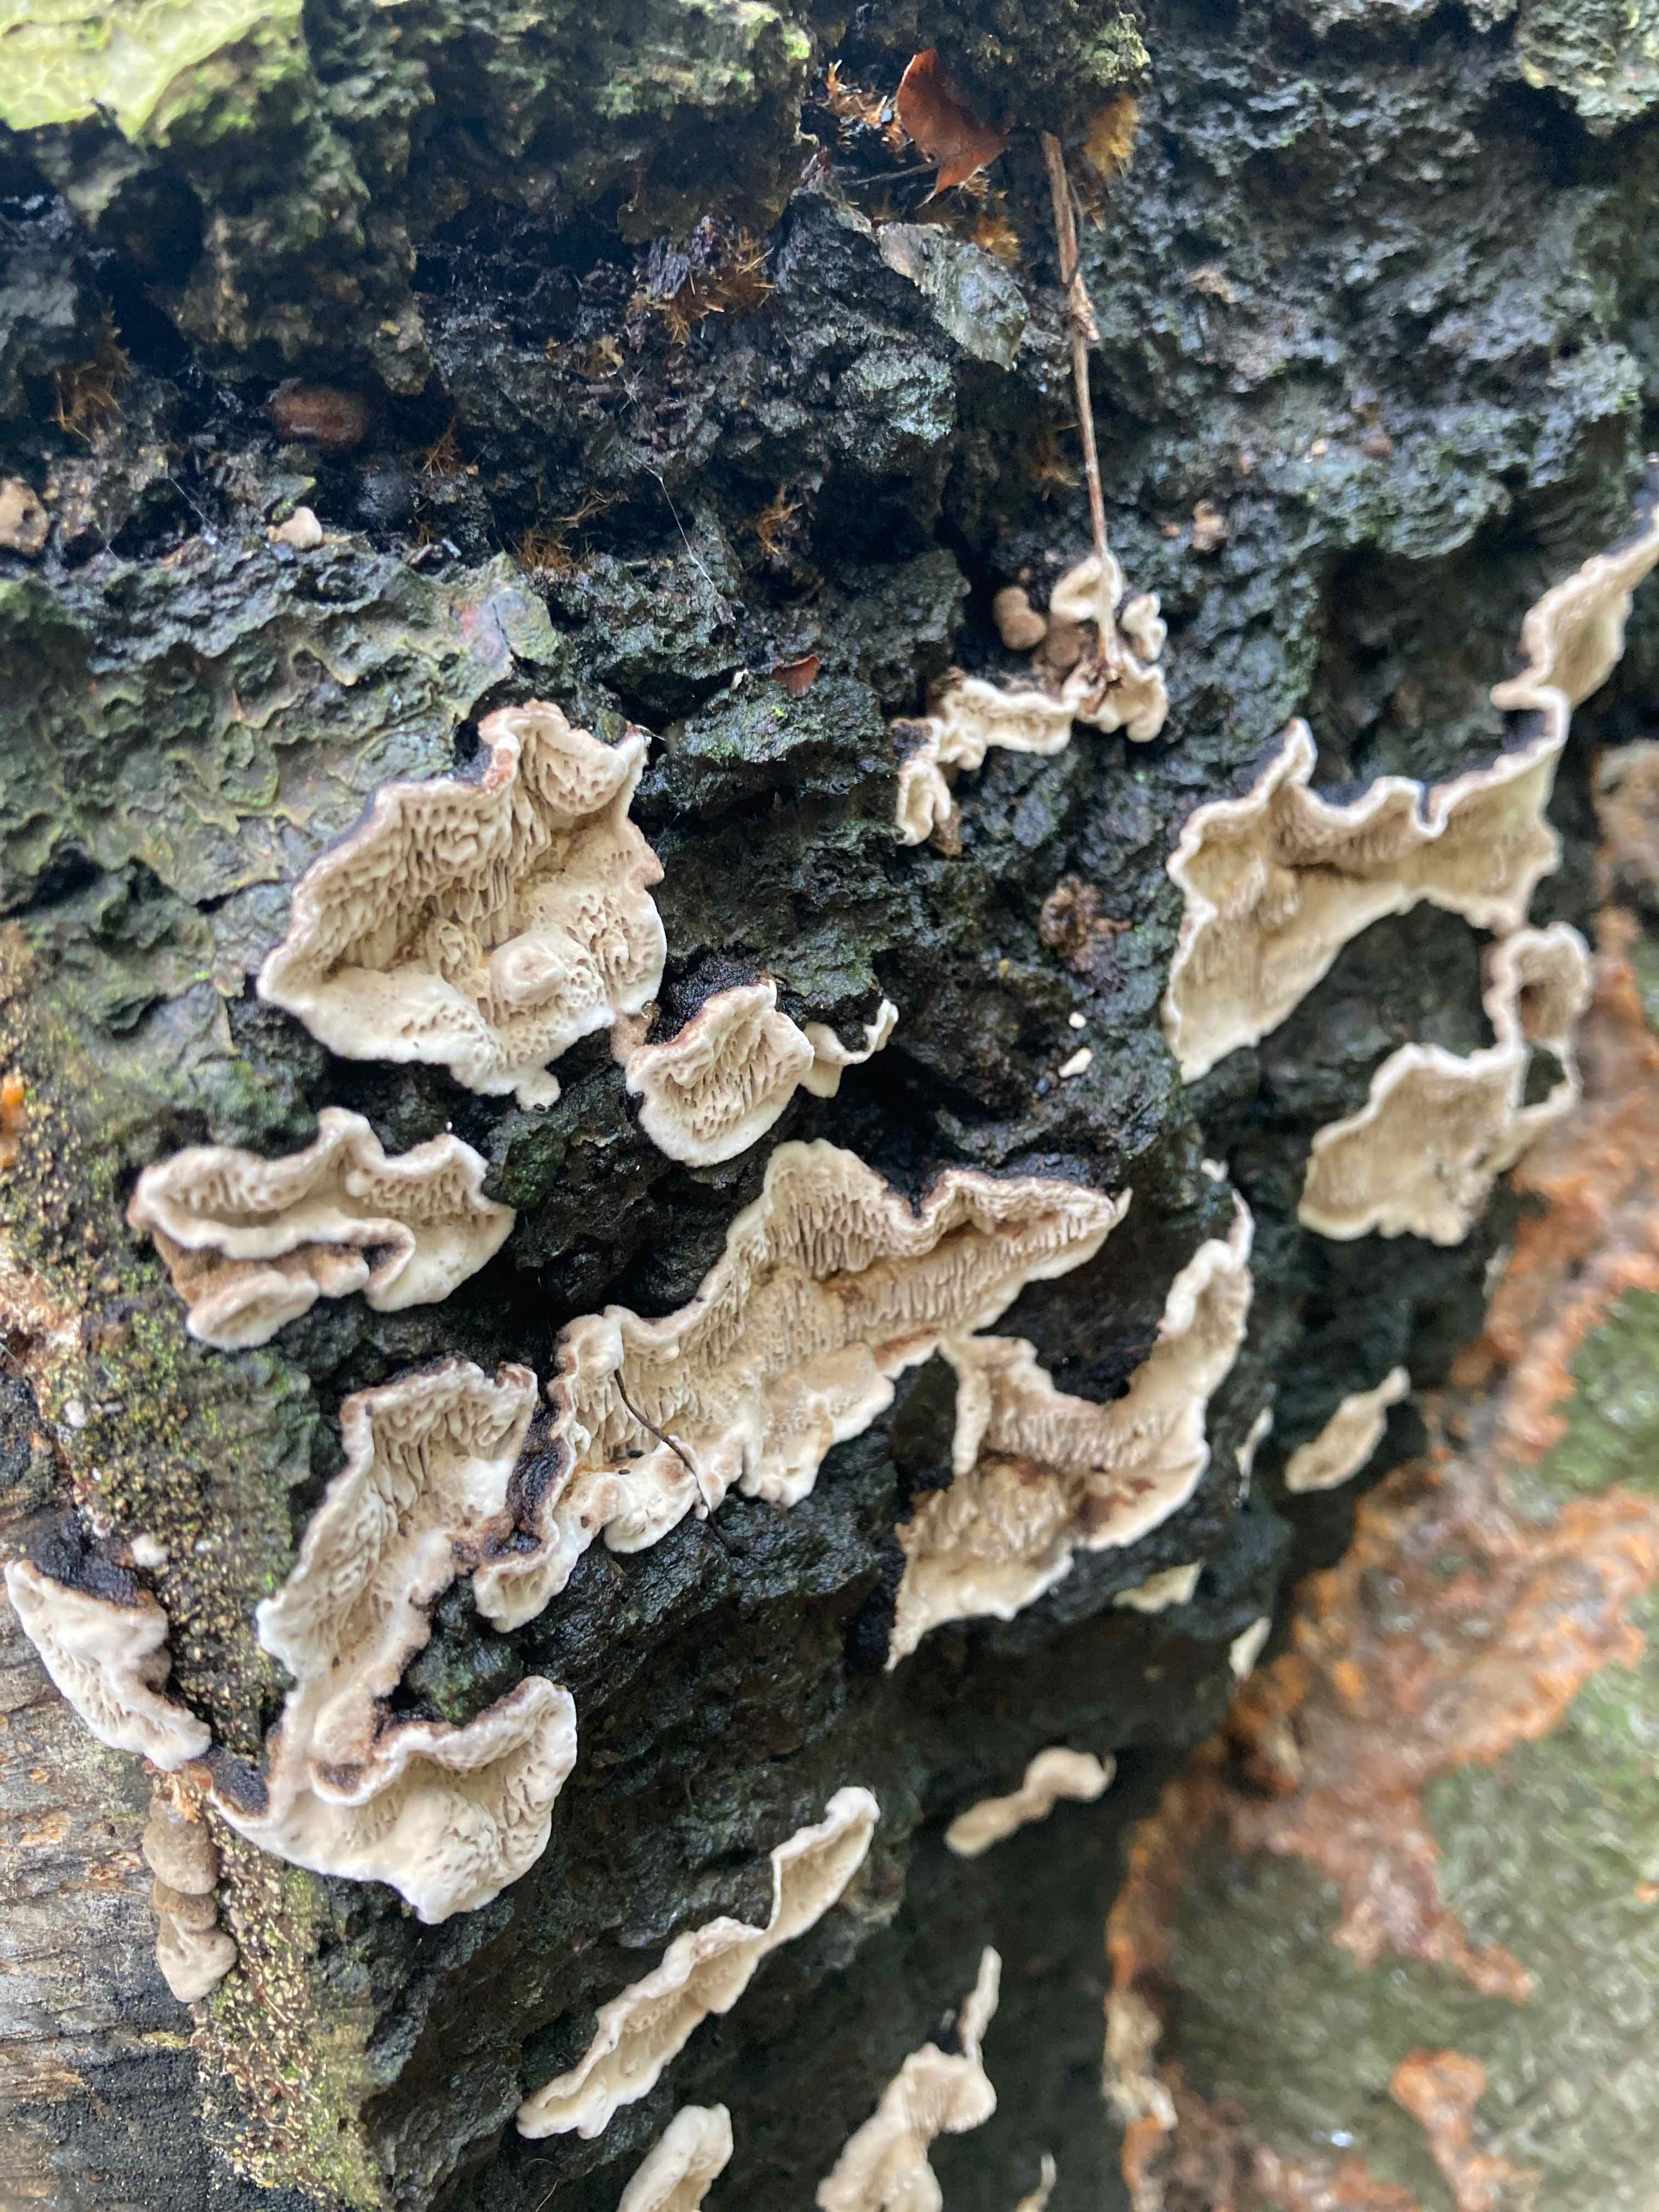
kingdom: Fungi
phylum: Basidiomycota
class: Agaricomycetes
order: Polyporales
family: Polyporaceae
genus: Podofomes
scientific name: Podofomes mollis
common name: blød begporesvamp
